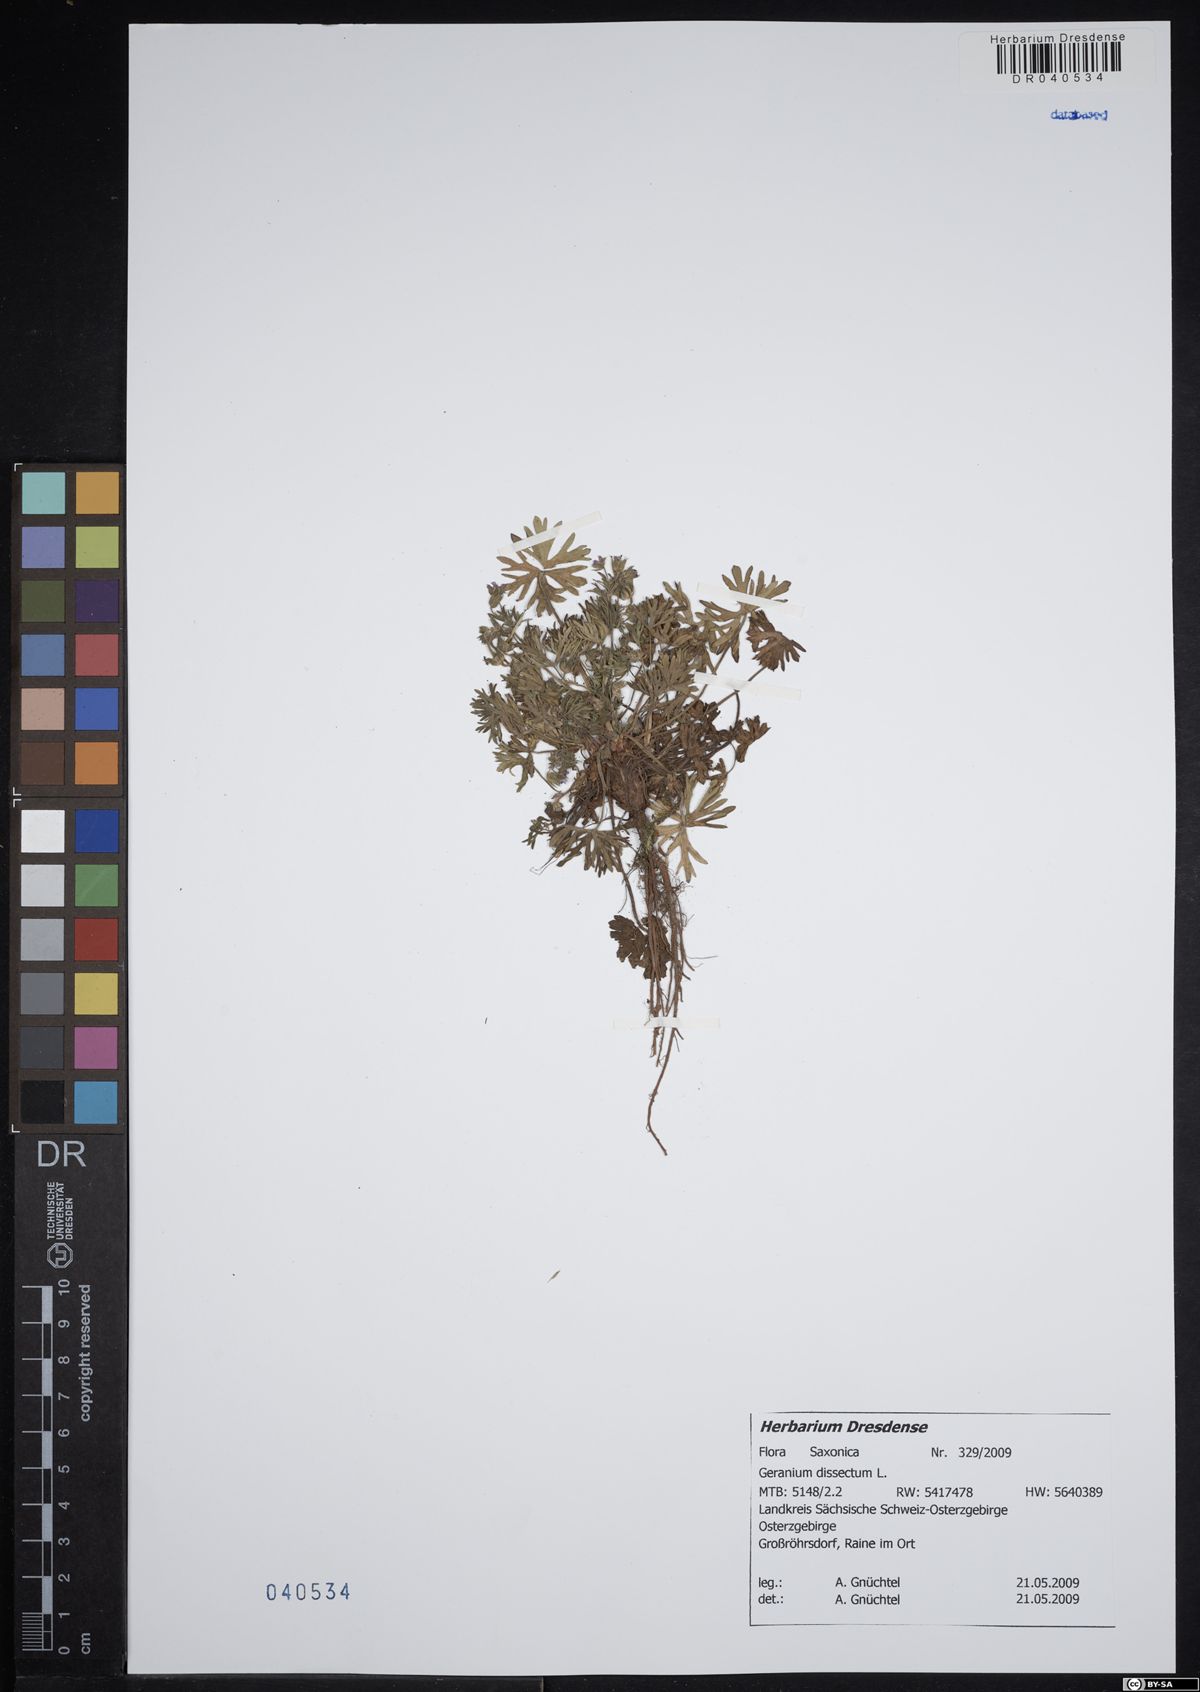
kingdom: Plantae
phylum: Tracheophyta
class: Magnoliopsida
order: Geraniales
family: Geraniaceae
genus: Geranium
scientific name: Geranium dissectum
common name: Cut-leaved crane's-bill
